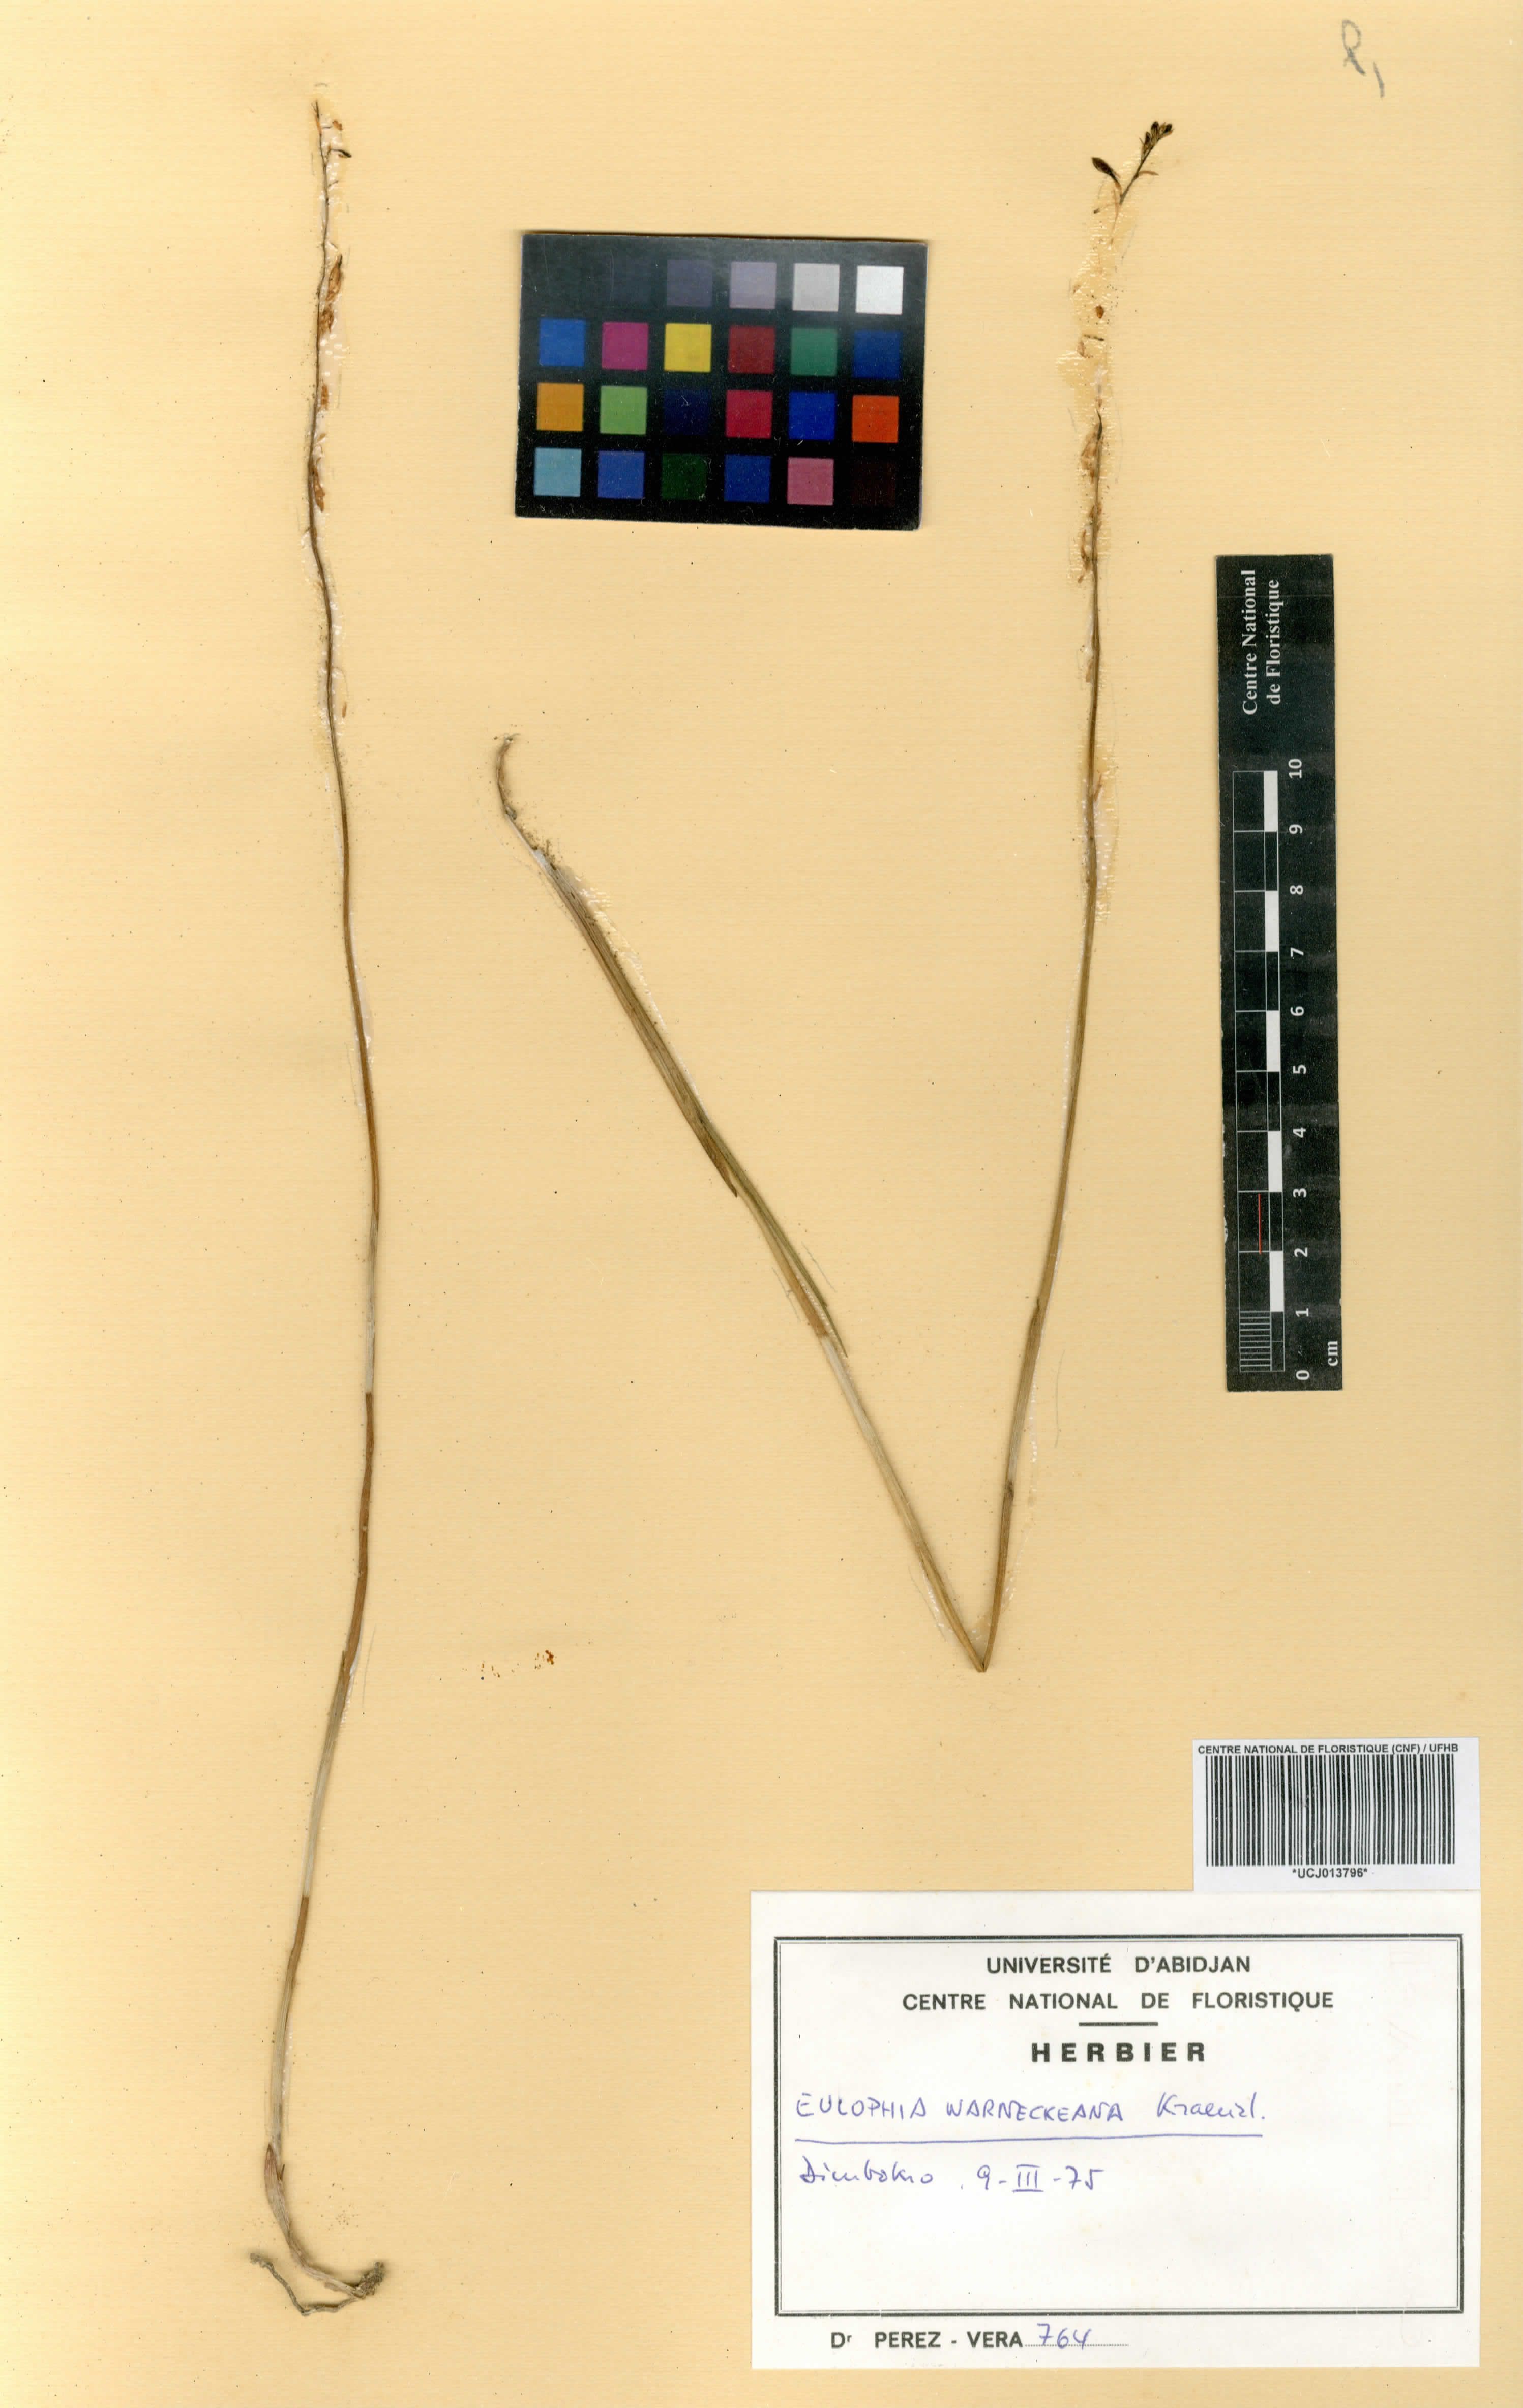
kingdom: Plantae
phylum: Tracheophyta
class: Liliopsida
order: Asparagales
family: Orchidaceae
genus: Eulophia
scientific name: Eulophia milnei
